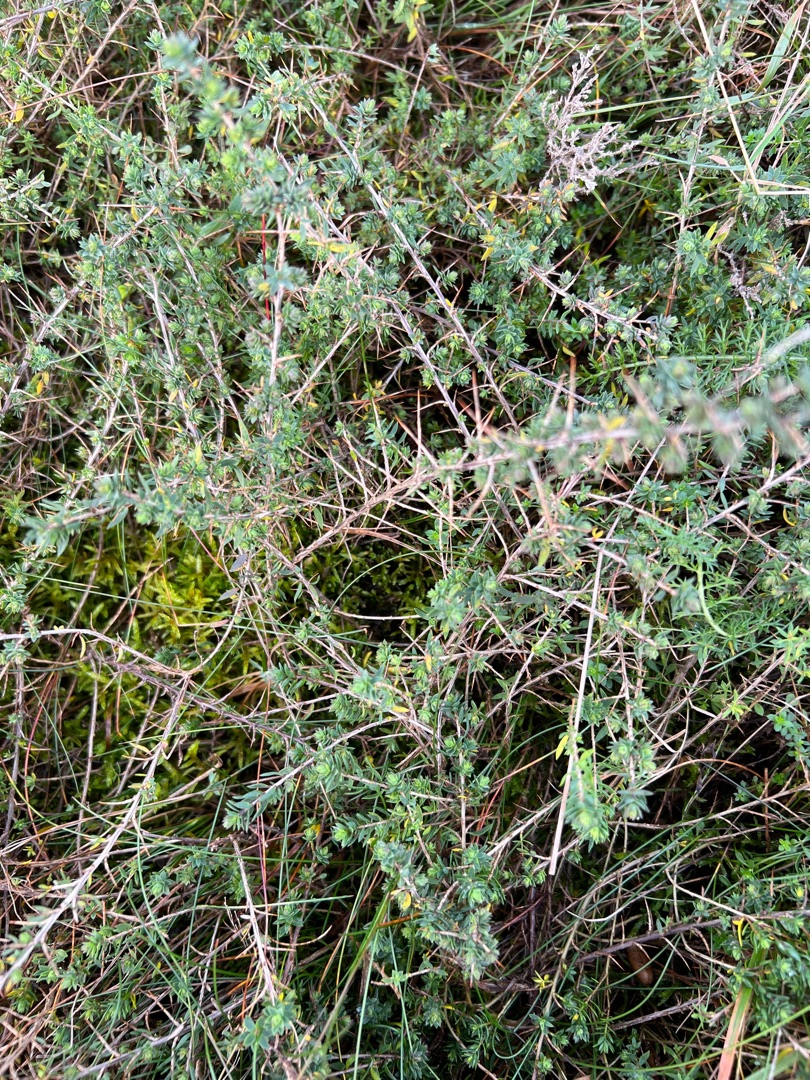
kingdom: Plantae
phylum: Tracheophyta
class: Magnoliopsida
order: Fabales
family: Fabaceae
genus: Genista
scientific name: Genista anglica
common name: Engelsk visse
